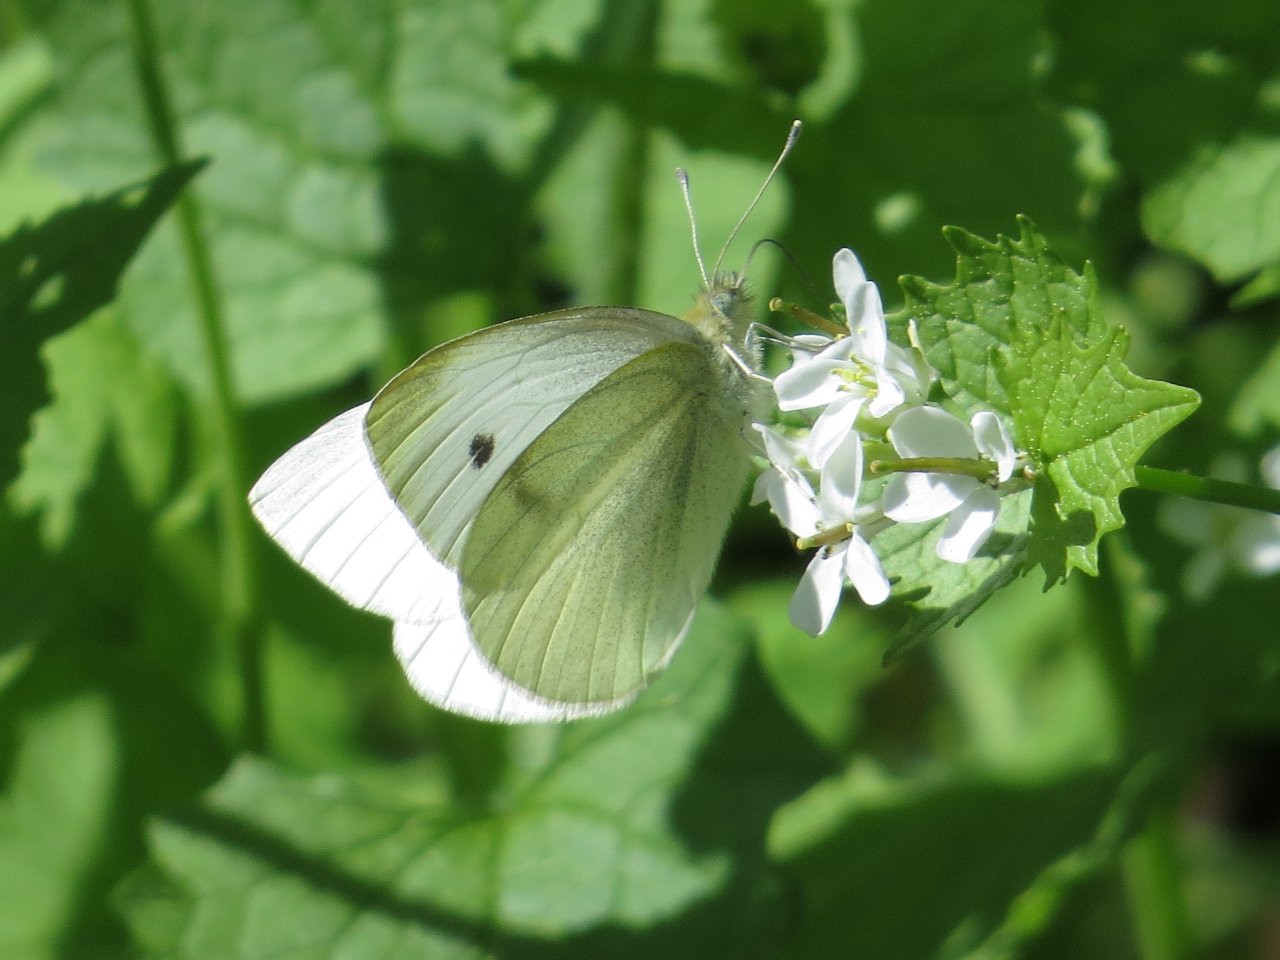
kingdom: Animalia
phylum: Arthropoda
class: Insecta
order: Lepidoptera
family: Pieridae
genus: Pieris
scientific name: Pieris rapae
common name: Cabbage White
